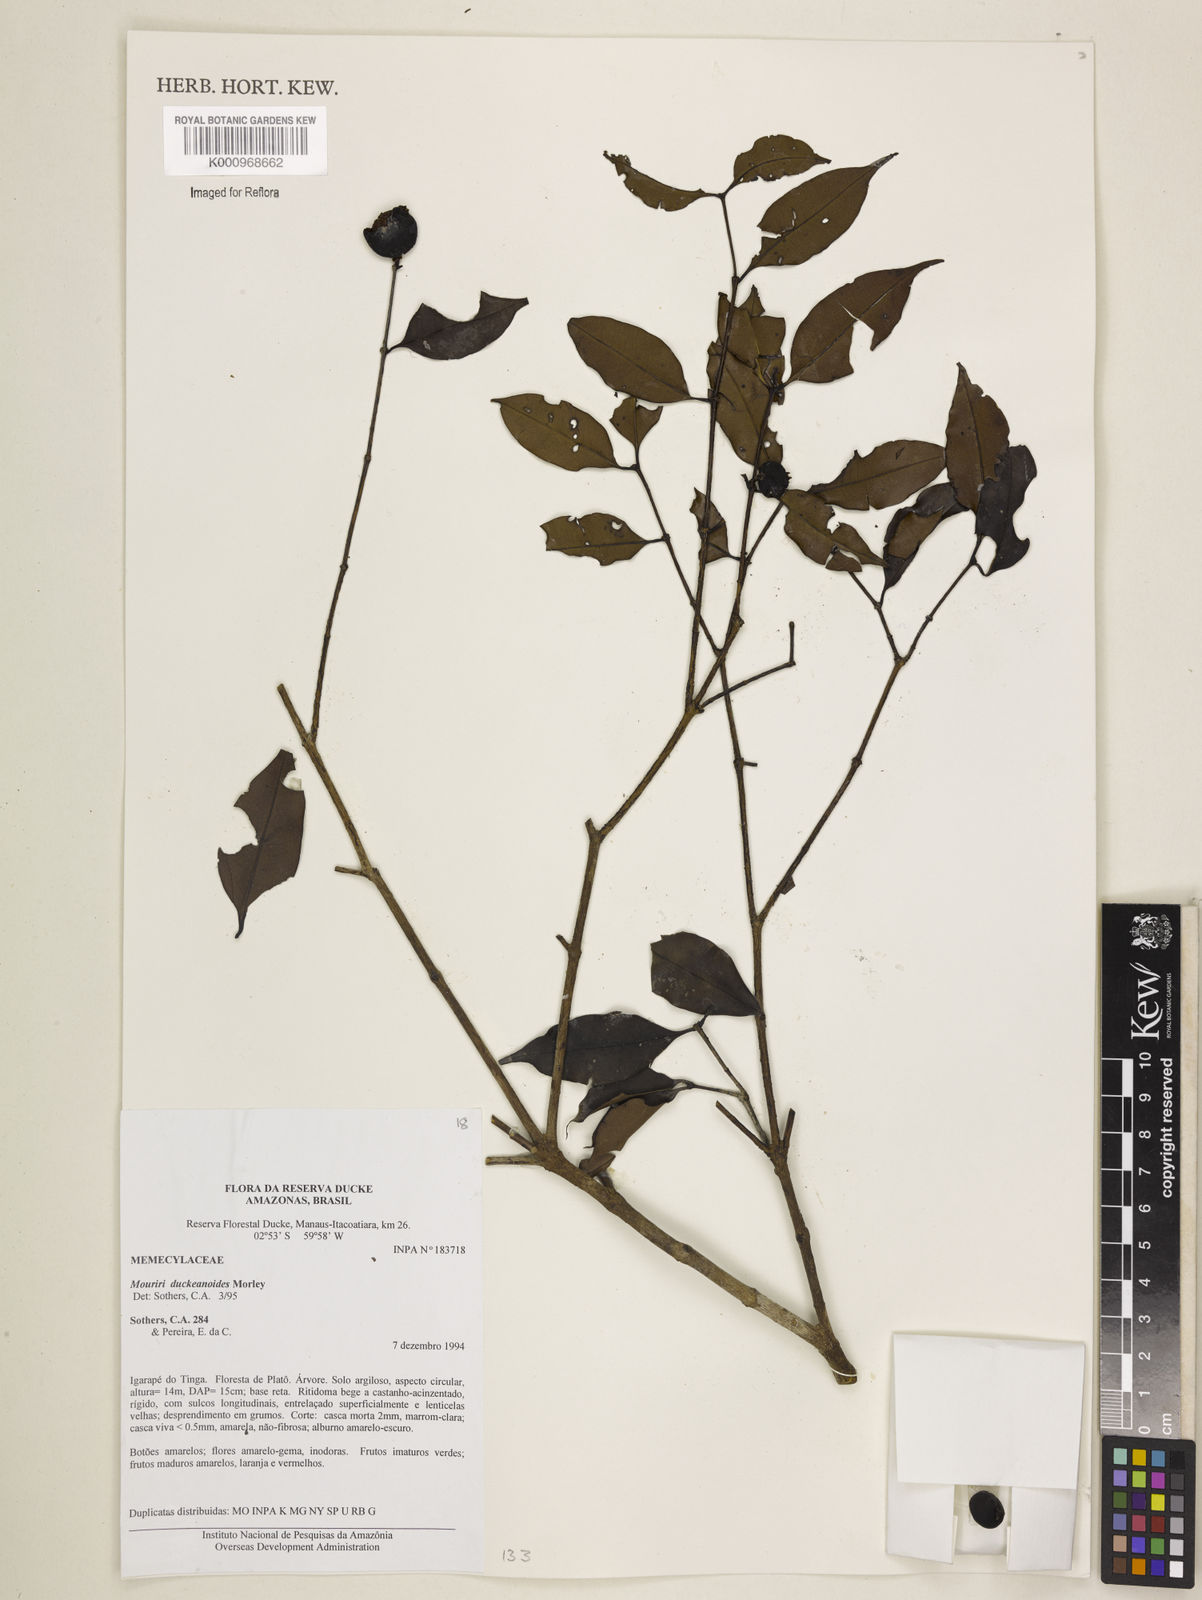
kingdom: Plantae
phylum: Tracheophyta
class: Magnoliopsida
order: Myrtales
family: Melastomataceae
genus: Mouriri
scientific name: Mouriri duckeanoides
